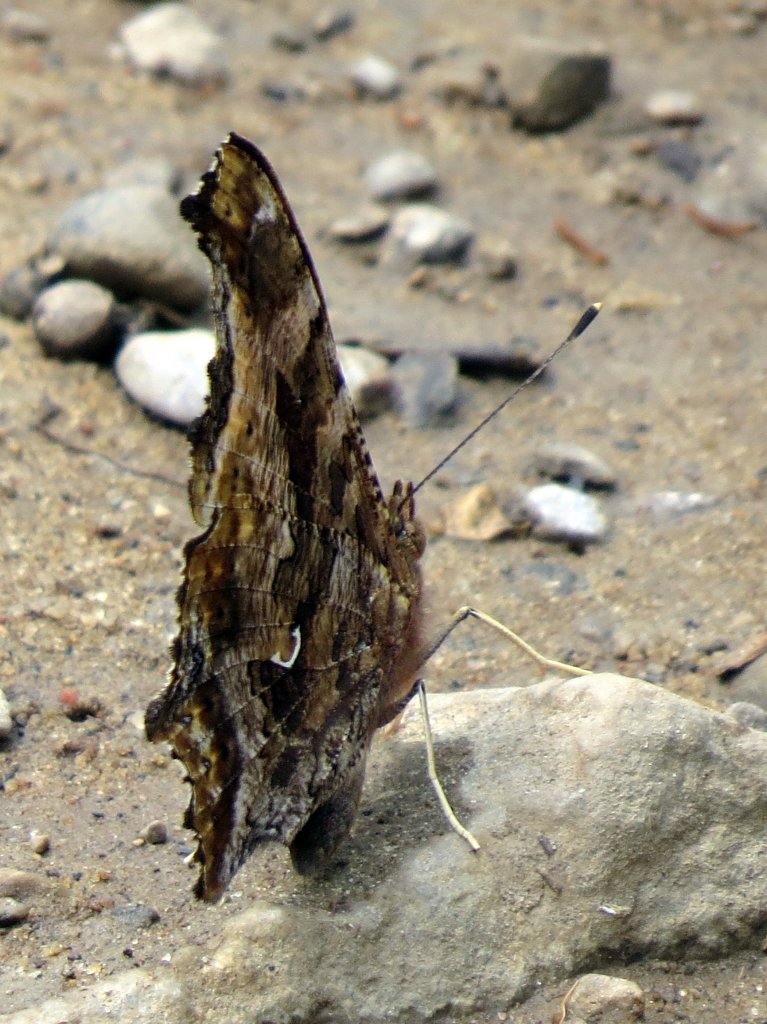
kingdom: Animalia
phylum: Arthropoda
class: Insecta
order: Lepidoptera
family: Nymphalidae
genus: Polygonia
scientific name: Polygonia comma
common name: Eastern Comma
